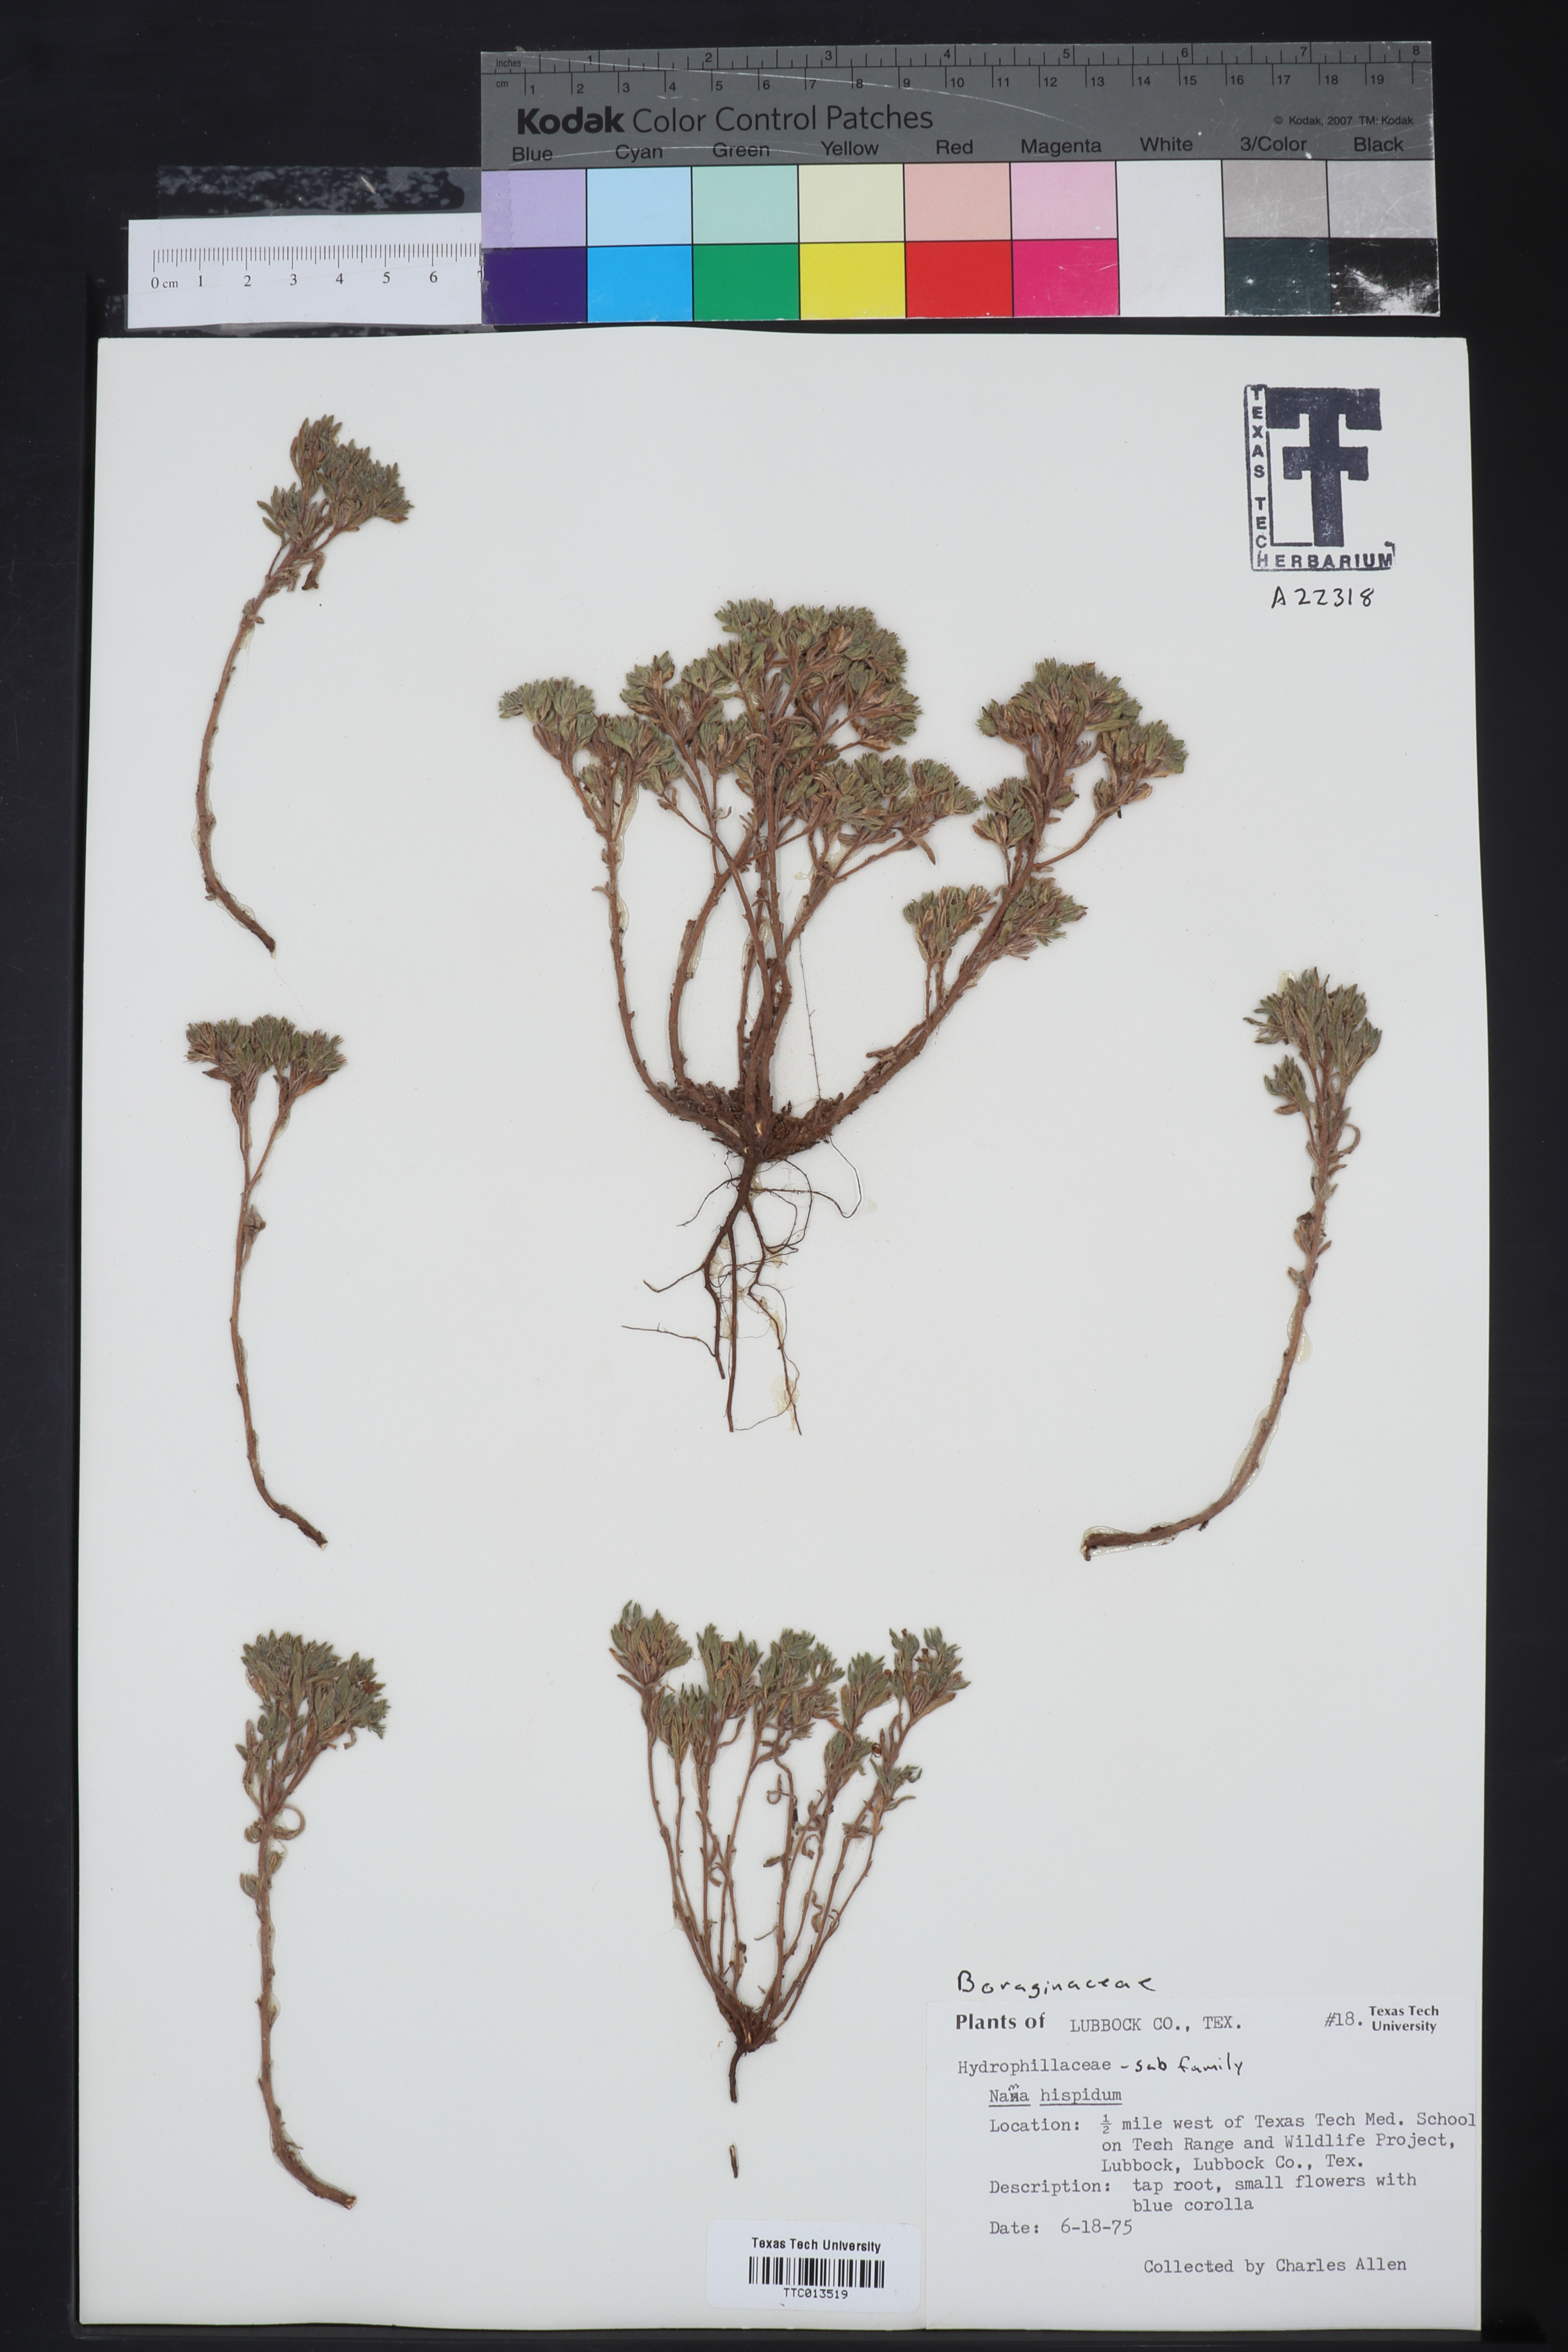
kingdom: Plantae
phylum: Tracheophyta
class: Magnoliopsida
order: Boraginales
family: Namaceae
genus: Nama
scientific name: Nama hispida
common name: Bristly nama
